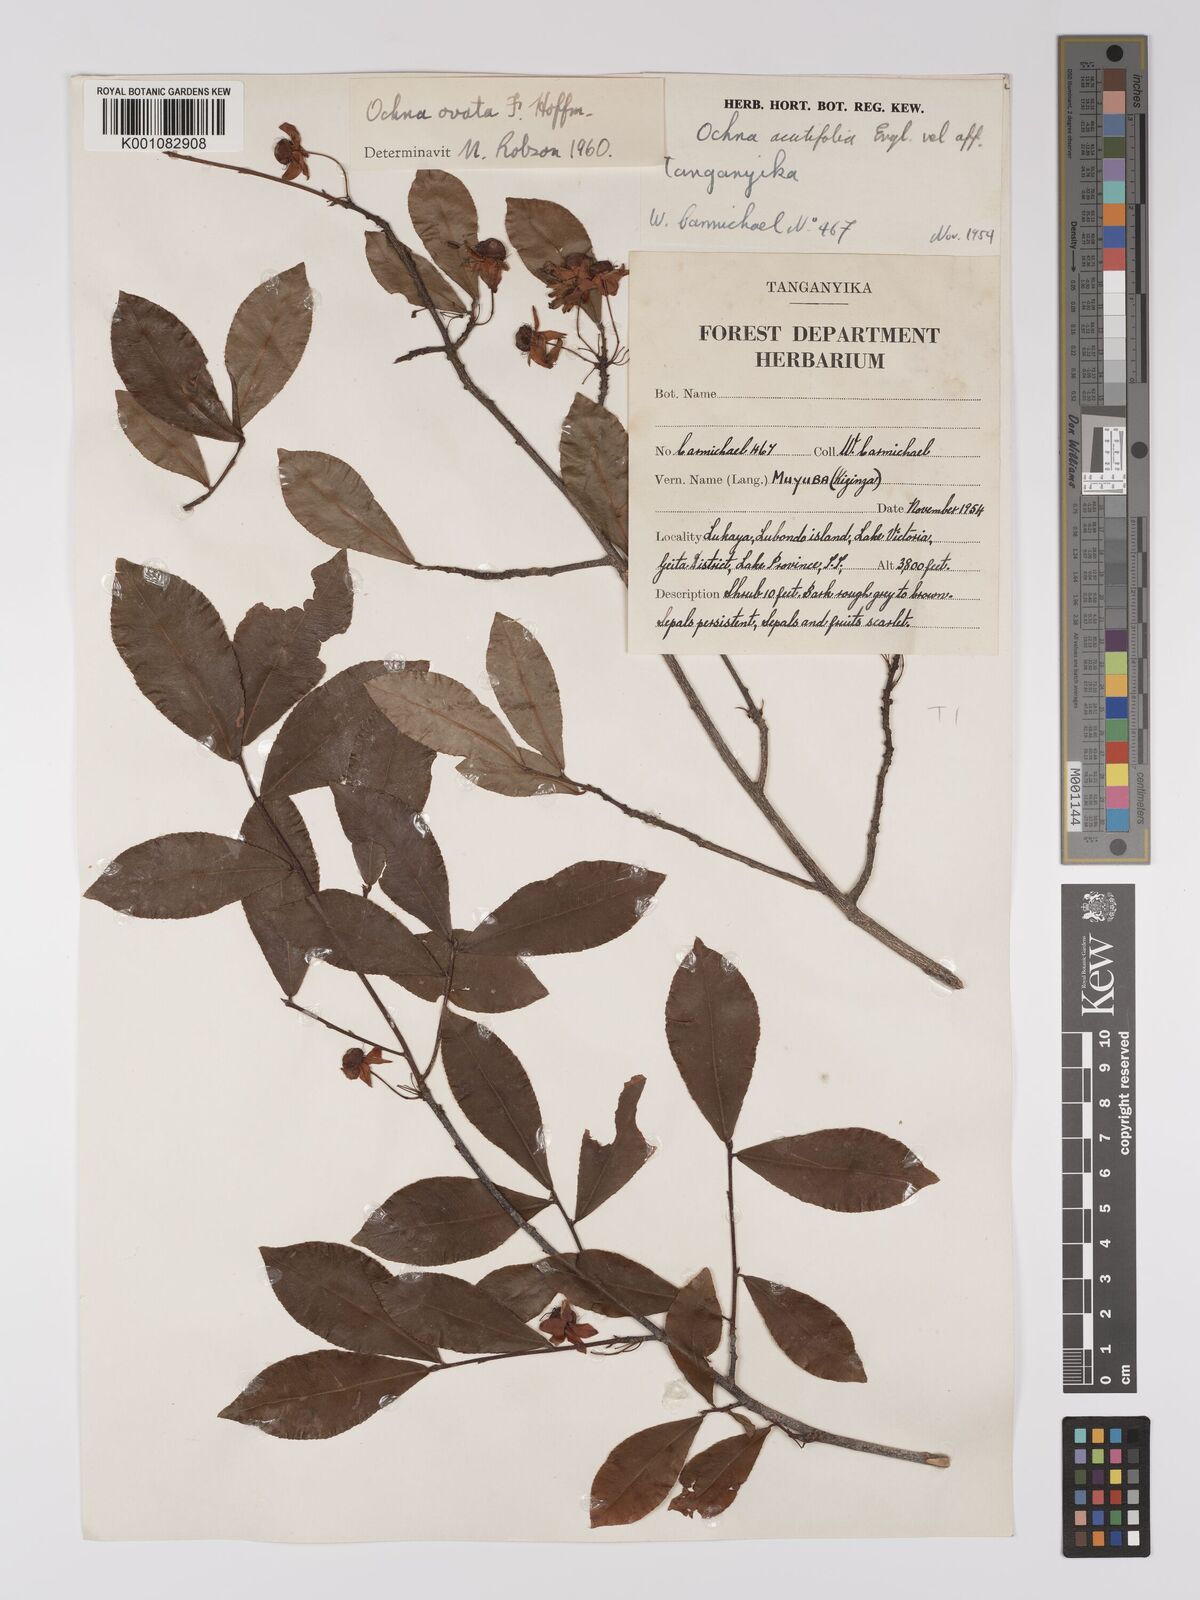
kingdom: Plantae
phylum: Tracheophyta
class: Magnoliopsida
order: Malpighiales
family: Ochnaceae
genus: Ochna
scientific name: Ochna ovata
